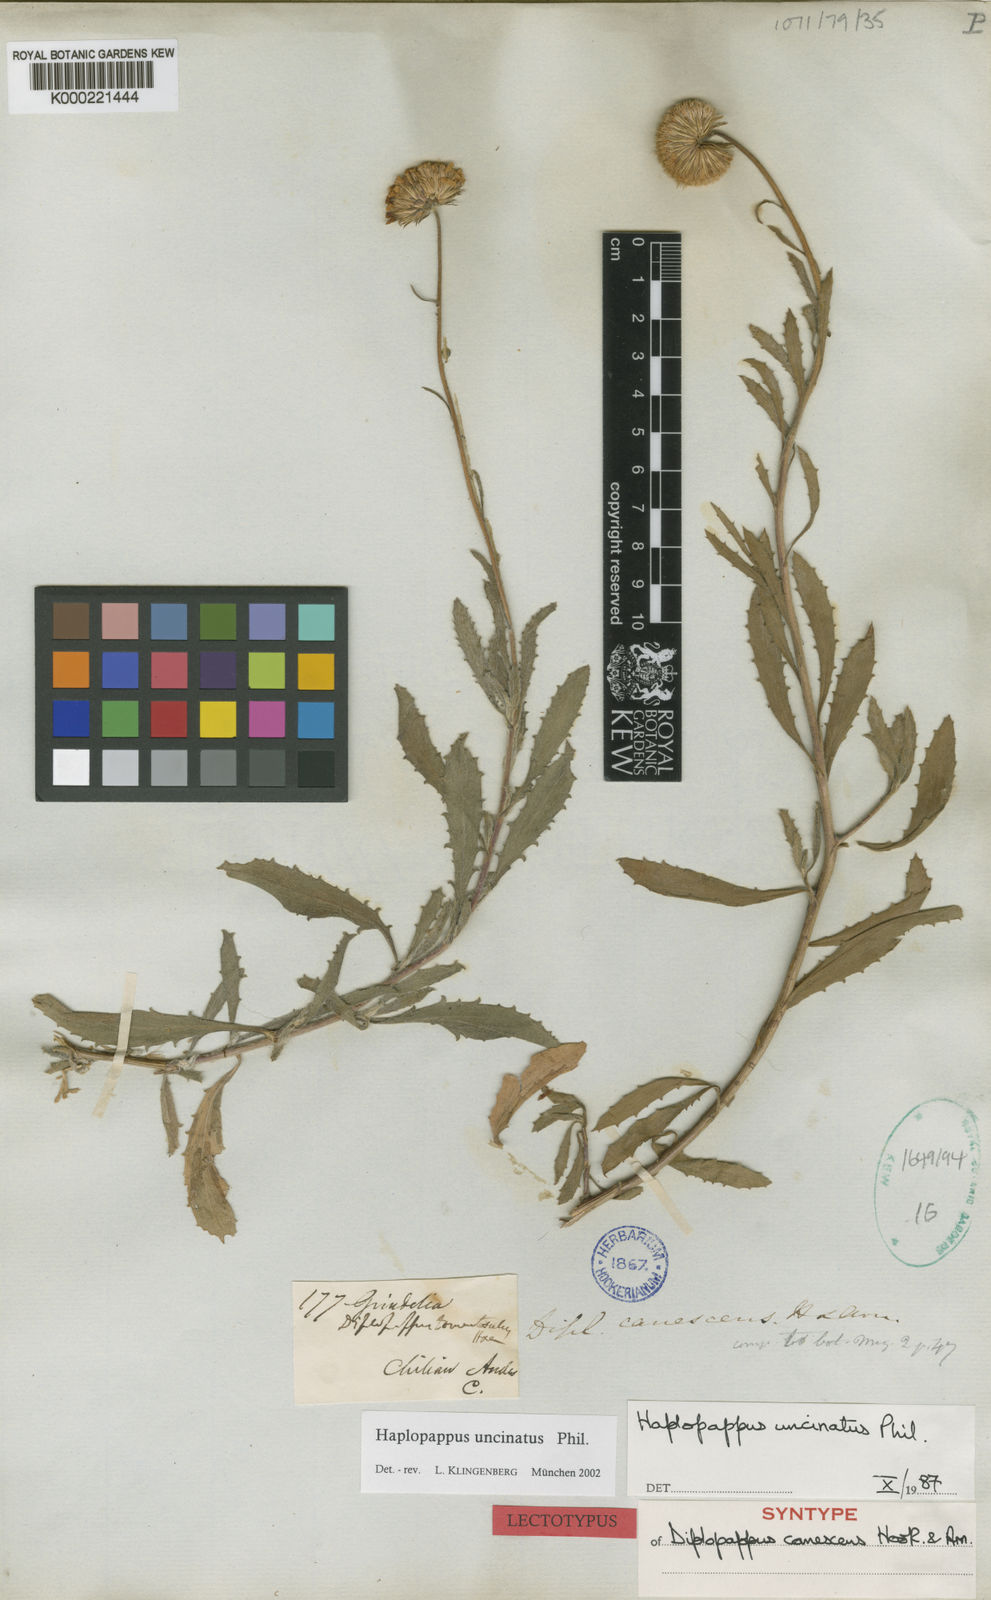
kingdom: Plantae
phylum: Tracheophyta
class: Magnoliopsida
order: Asterales
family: Asteraceae
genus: Haplopappus
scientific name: Haplopappus uncinatus
